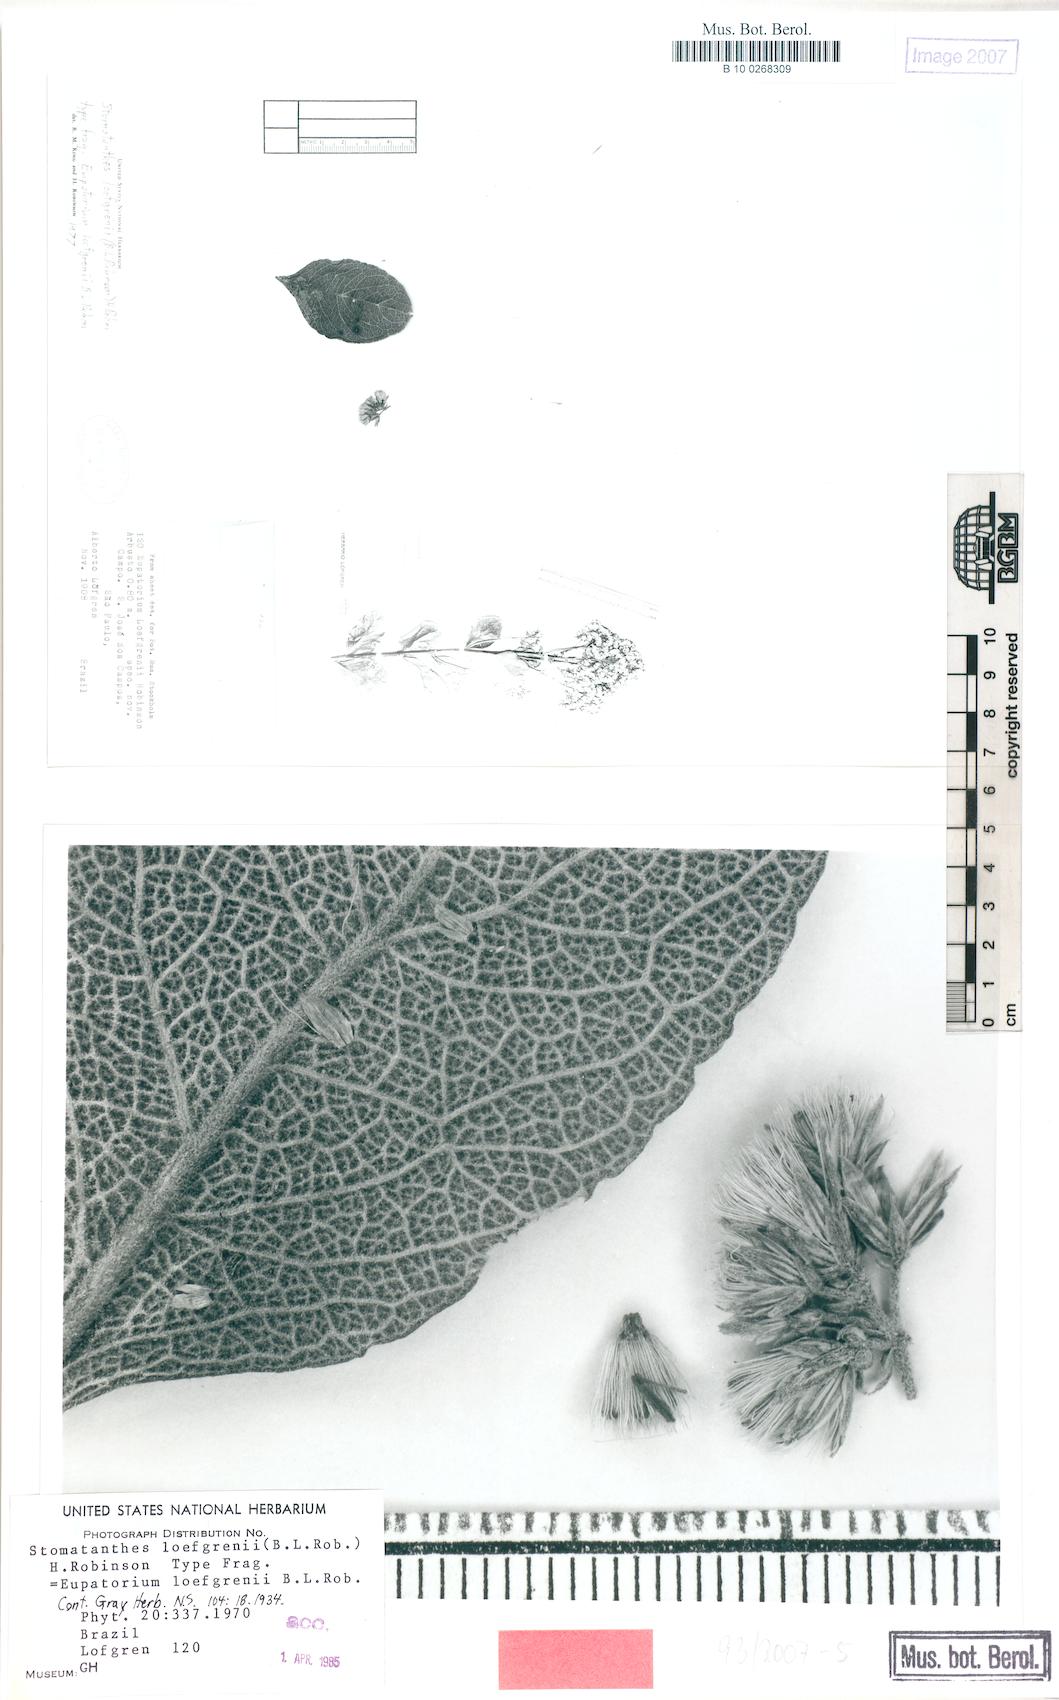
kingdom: Plantae
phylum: Tracheophyta
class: Magnoliopsida
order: Asterales
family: Asteraceae
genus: Stomatanthes
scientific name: Stomatanthes loefgrenii
